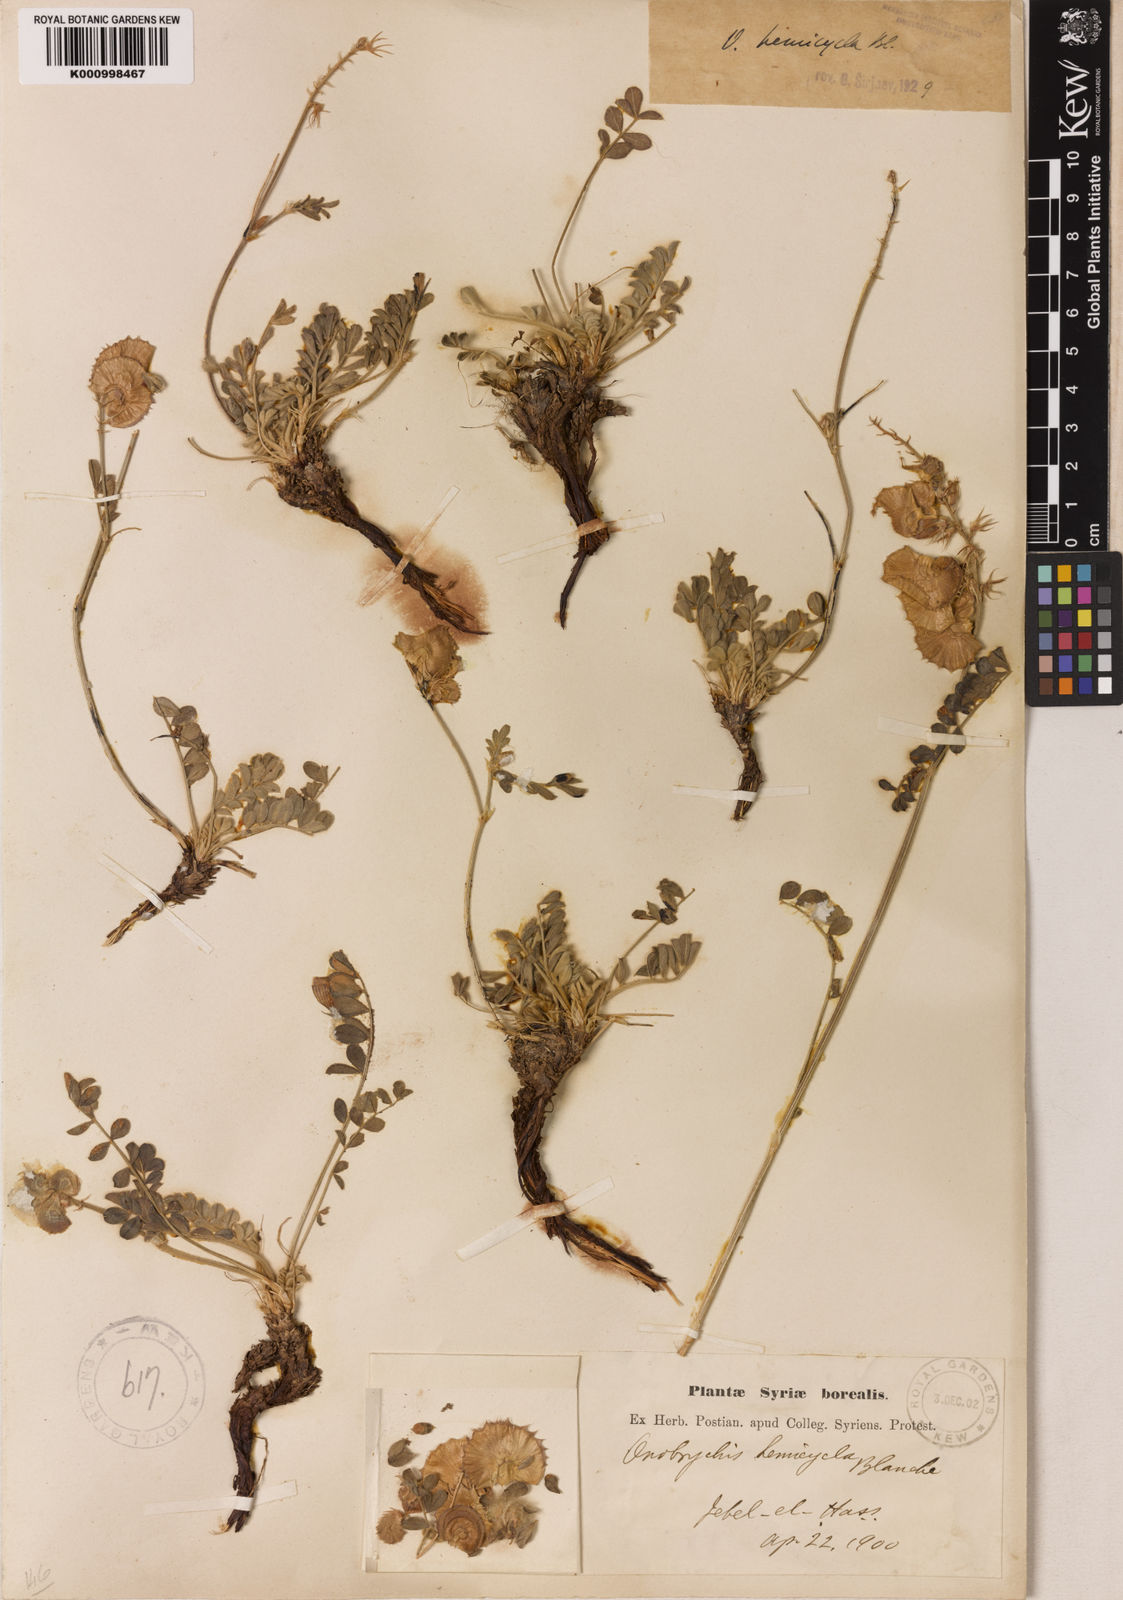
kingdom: Plantae
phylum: Tracheophyta
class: Magnoliopsida
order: Fabales
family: Fabaceae
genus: Onobrychis
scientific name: Onobrychis hemicycla
